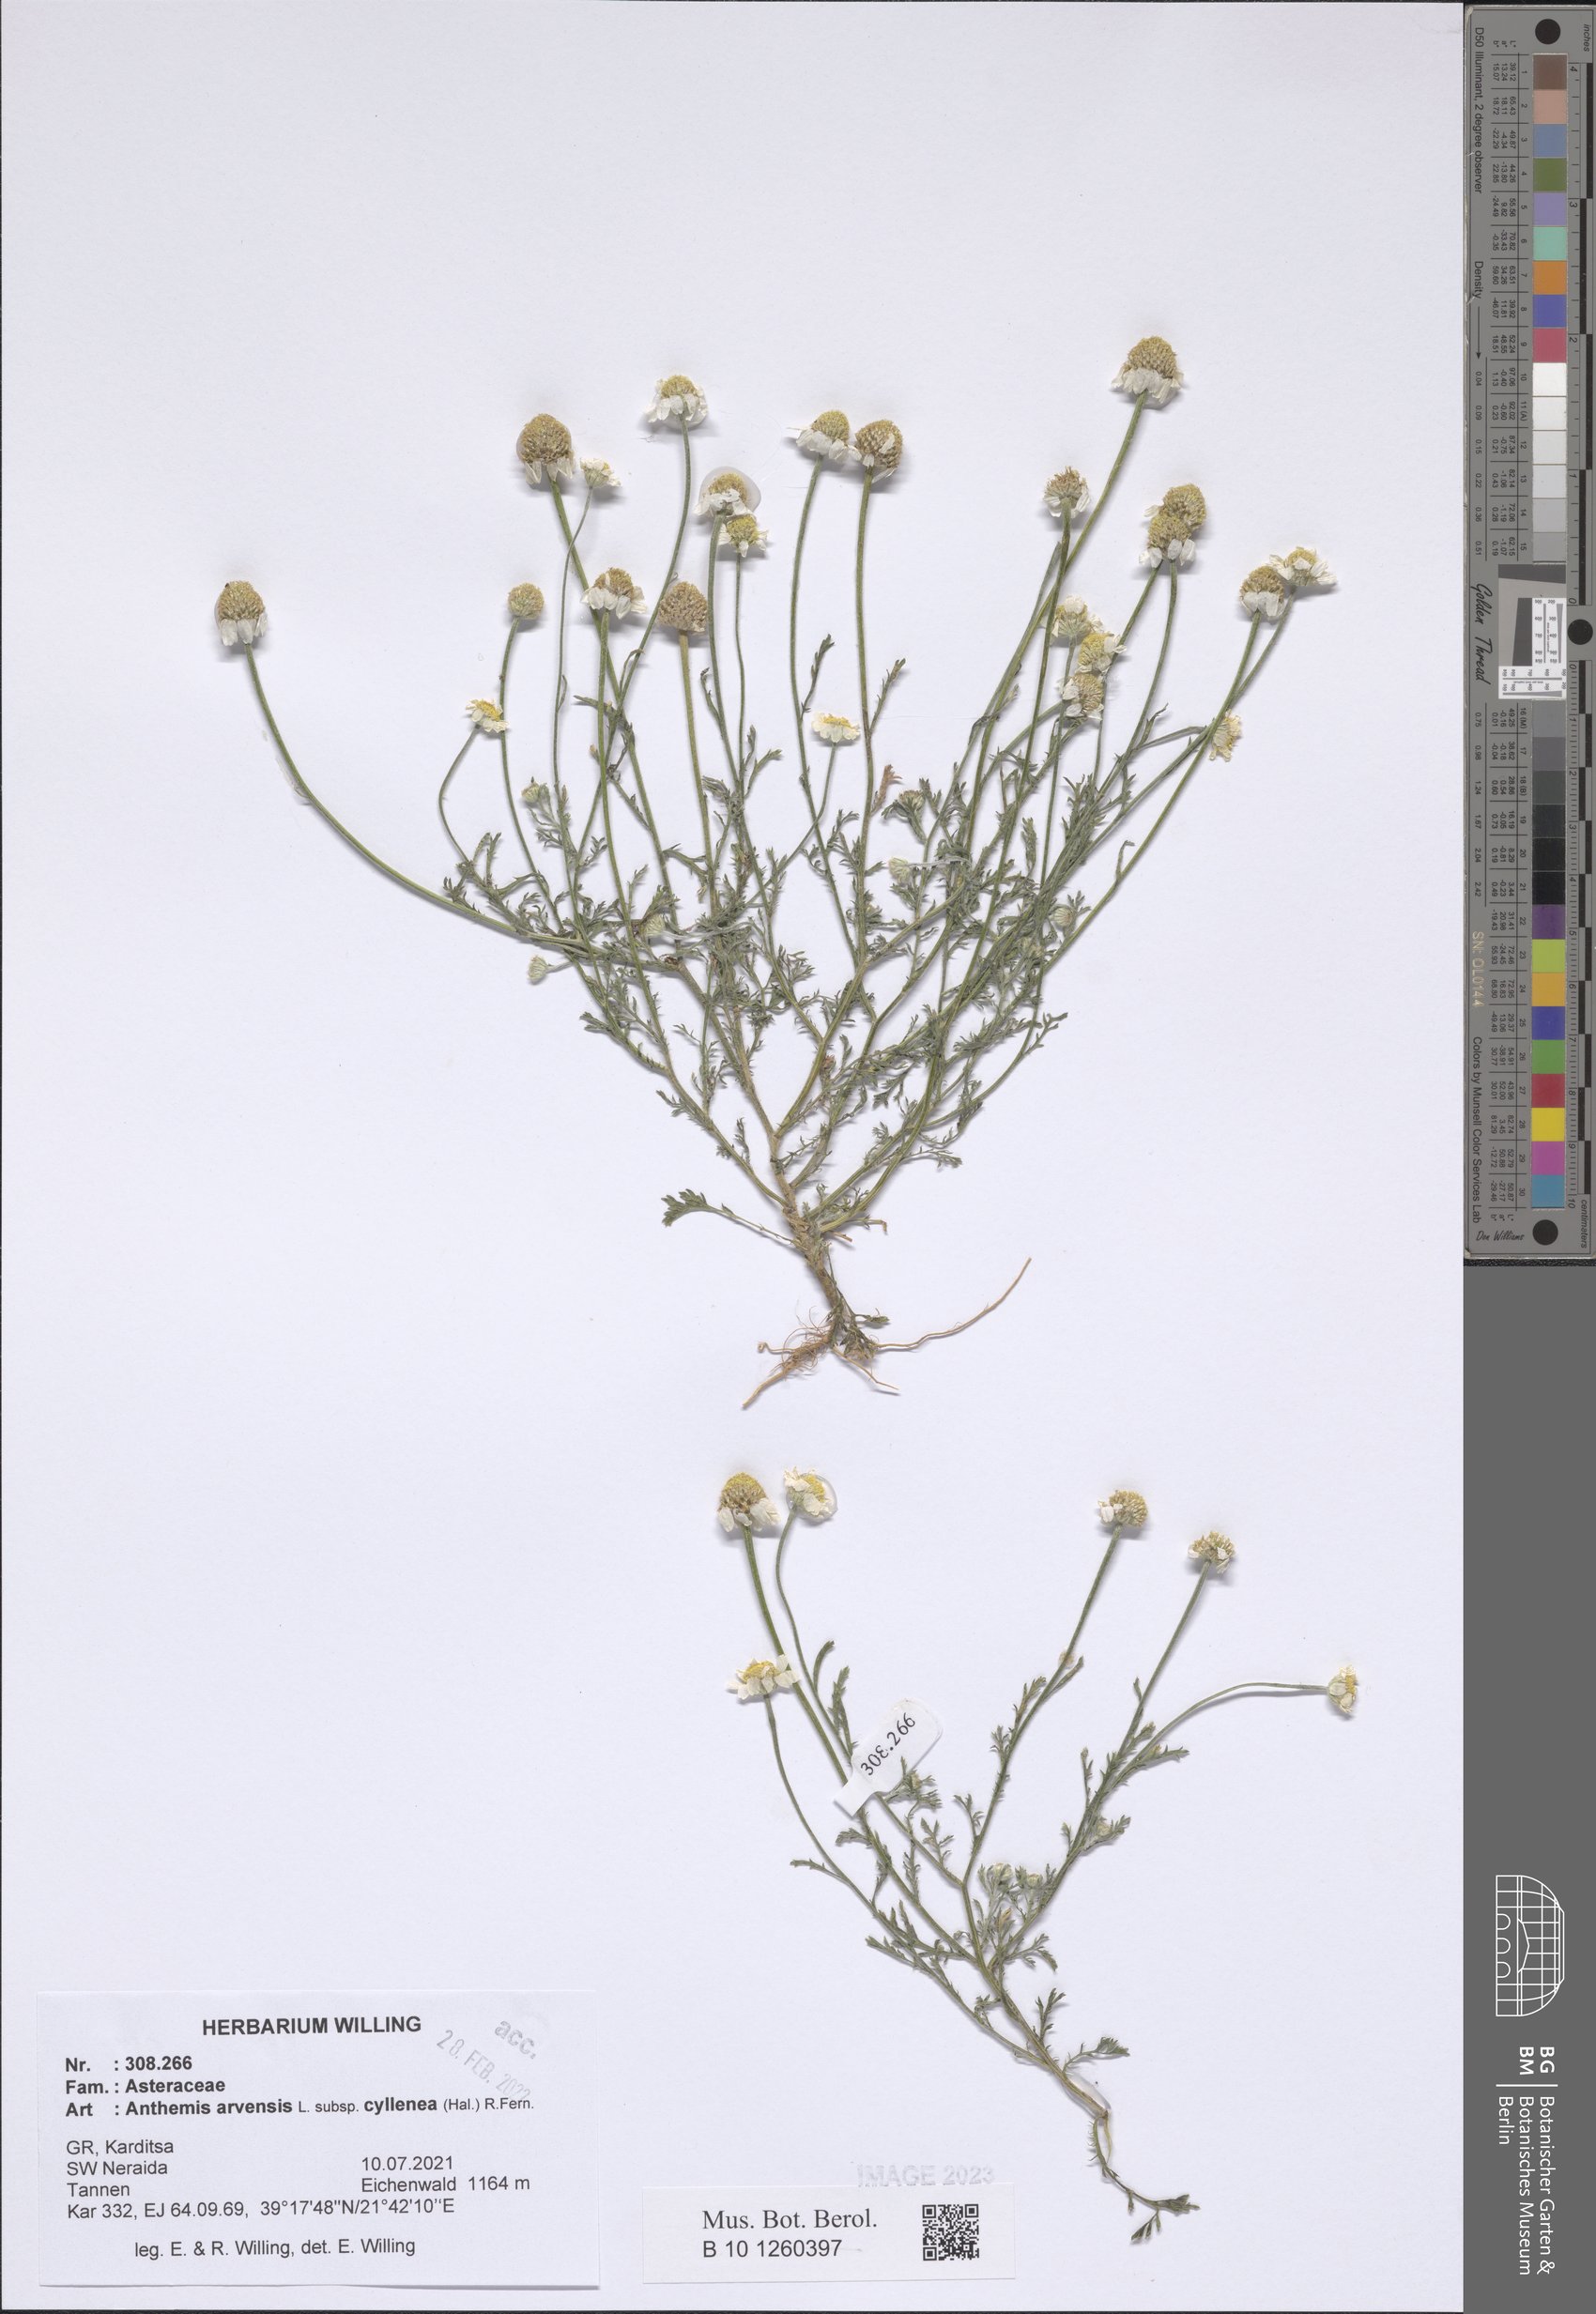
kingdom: Plantae
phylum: Tracheophyta
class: Magnoliopsida
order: Asterales
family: Asteraceae
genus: Anthemis
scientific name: Anthemis arvensis
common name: Corn chamomile
